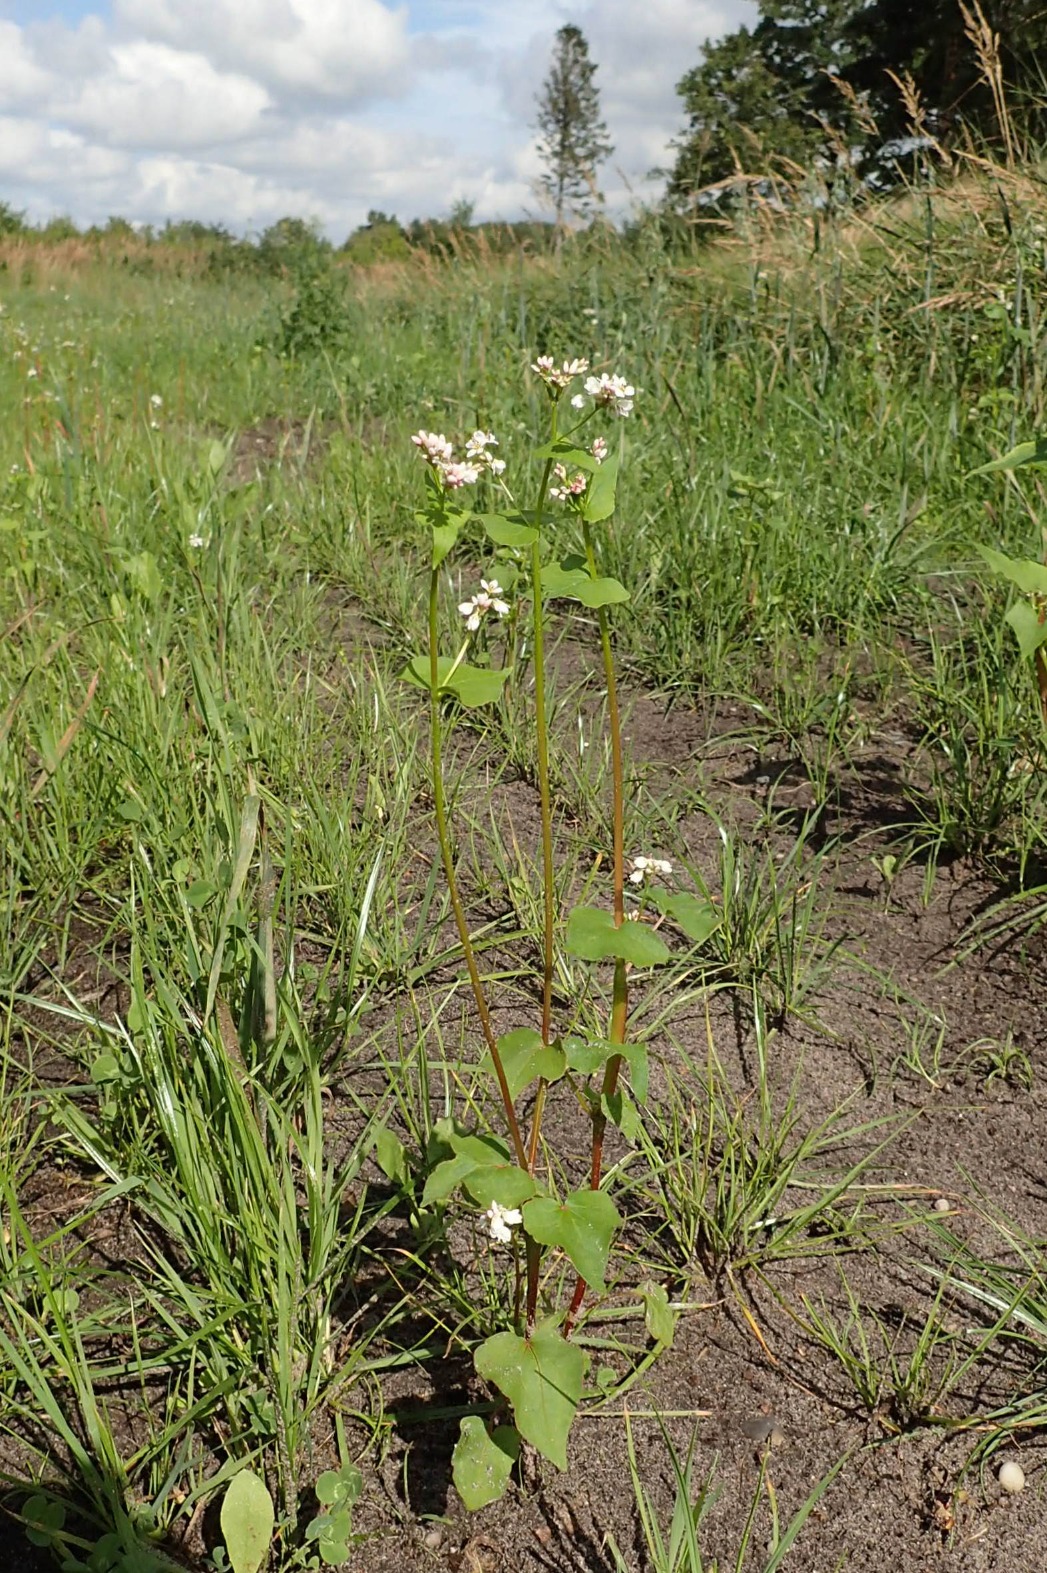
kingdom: Plantae
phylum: Tracheophyta
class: Magnoliopsida
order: Caryophyllales
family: Polygonaceae
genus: Fagopyrum
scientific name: Fagopyrum esculentum
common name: Almindelig boghvede
